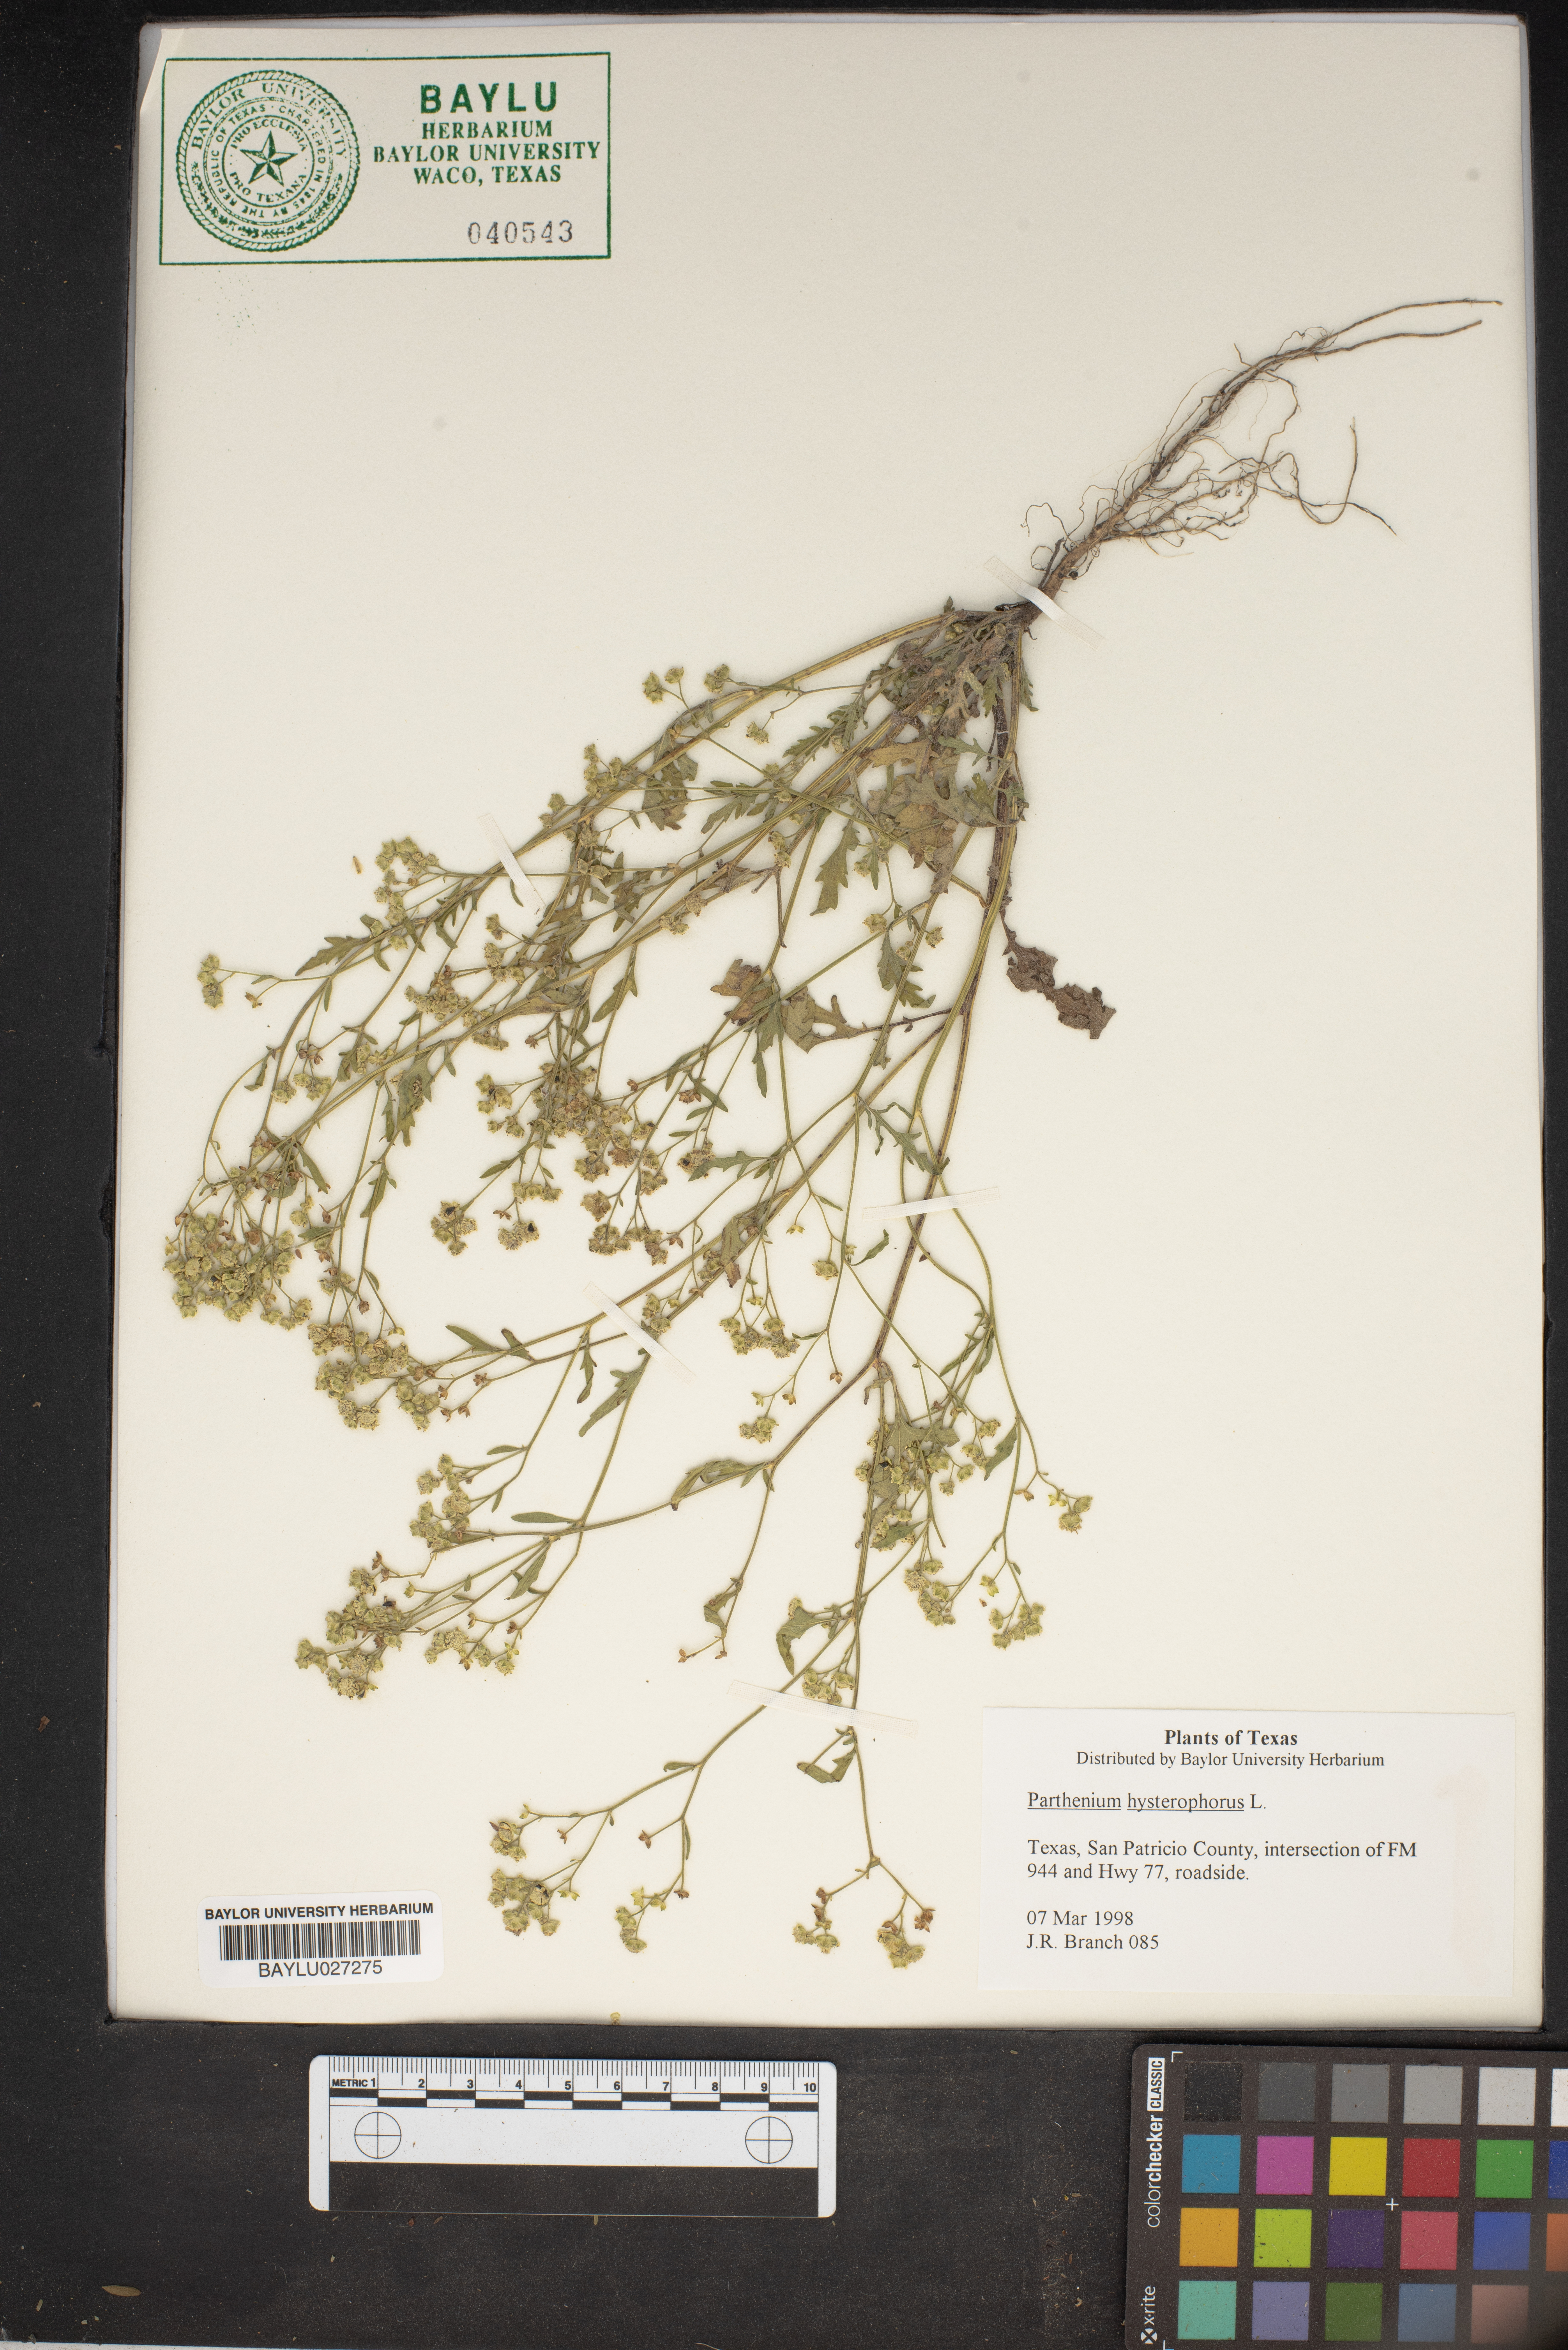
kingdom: Plantae
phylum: Tracheophyta
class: Magnoliopsida
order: Asterales
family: Asteraceae
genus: Parthenium
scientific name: Parthenium hysterophorus
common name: Santa maria feverfew
